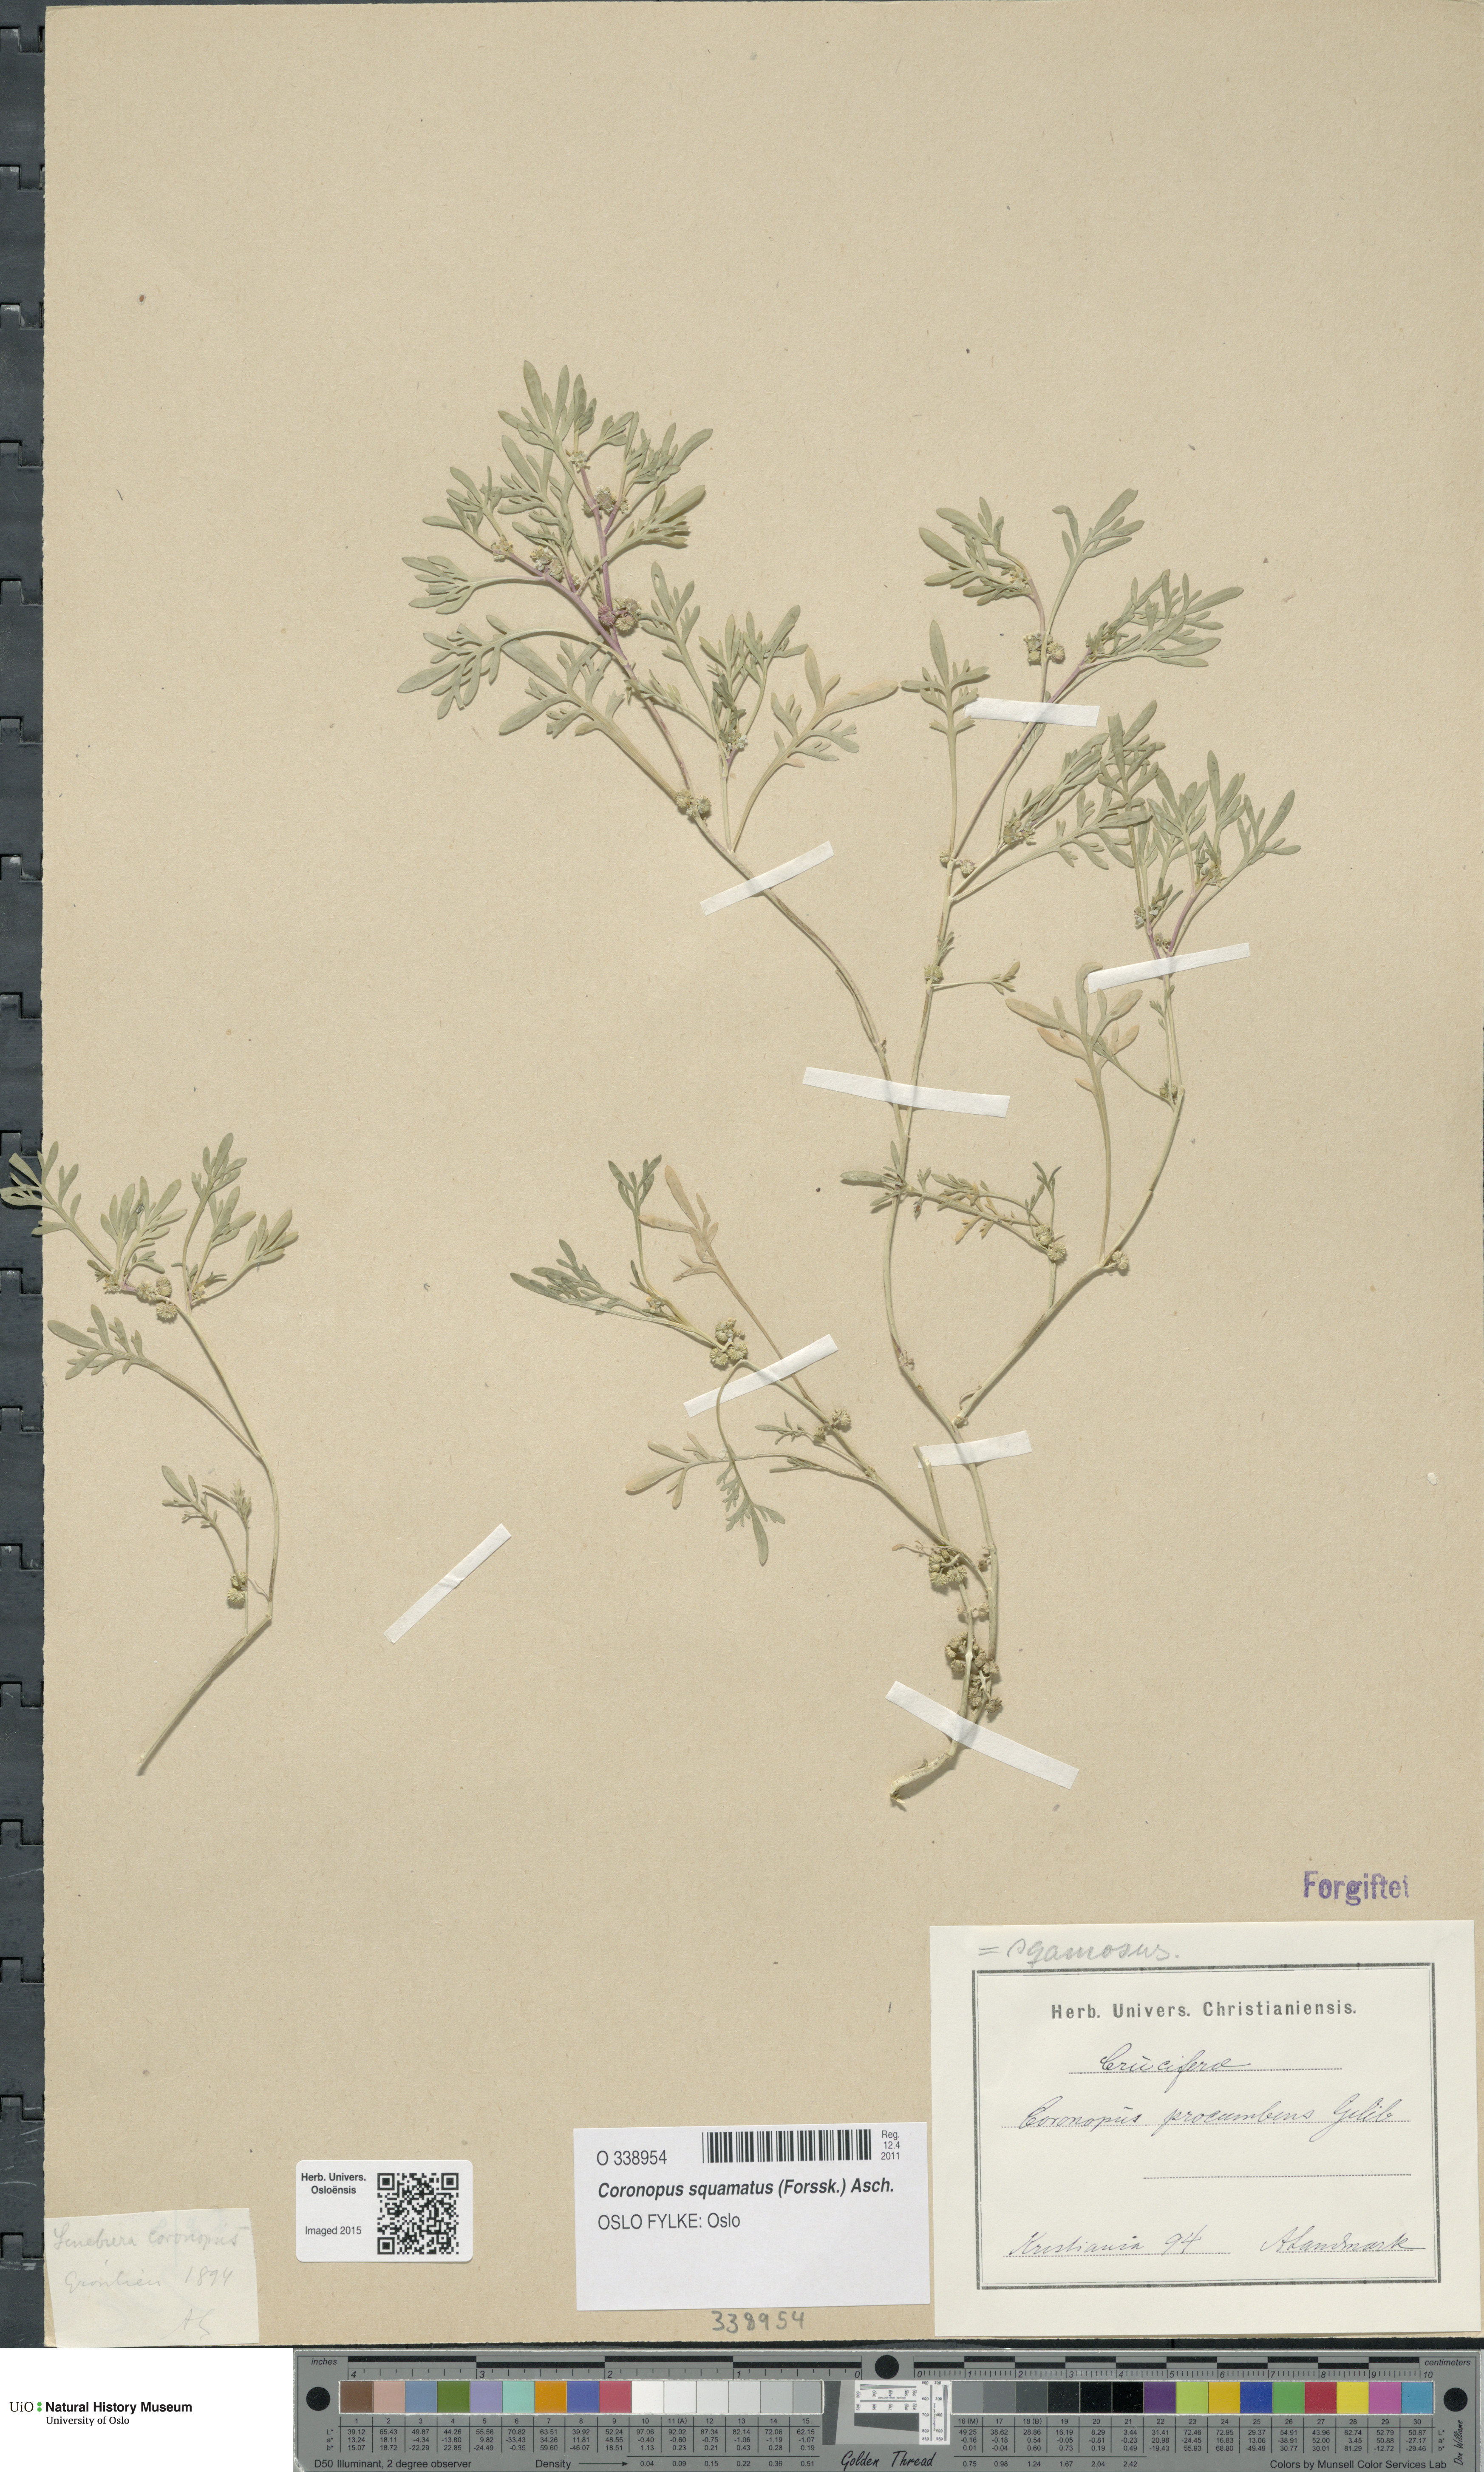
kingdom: Plantae
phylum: Tracheophyta
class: Magnoliopsida
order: Brassicales
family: Brassicaceae
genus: Lepidium
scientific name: Lepidium coronopus
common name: Greater swinecress
